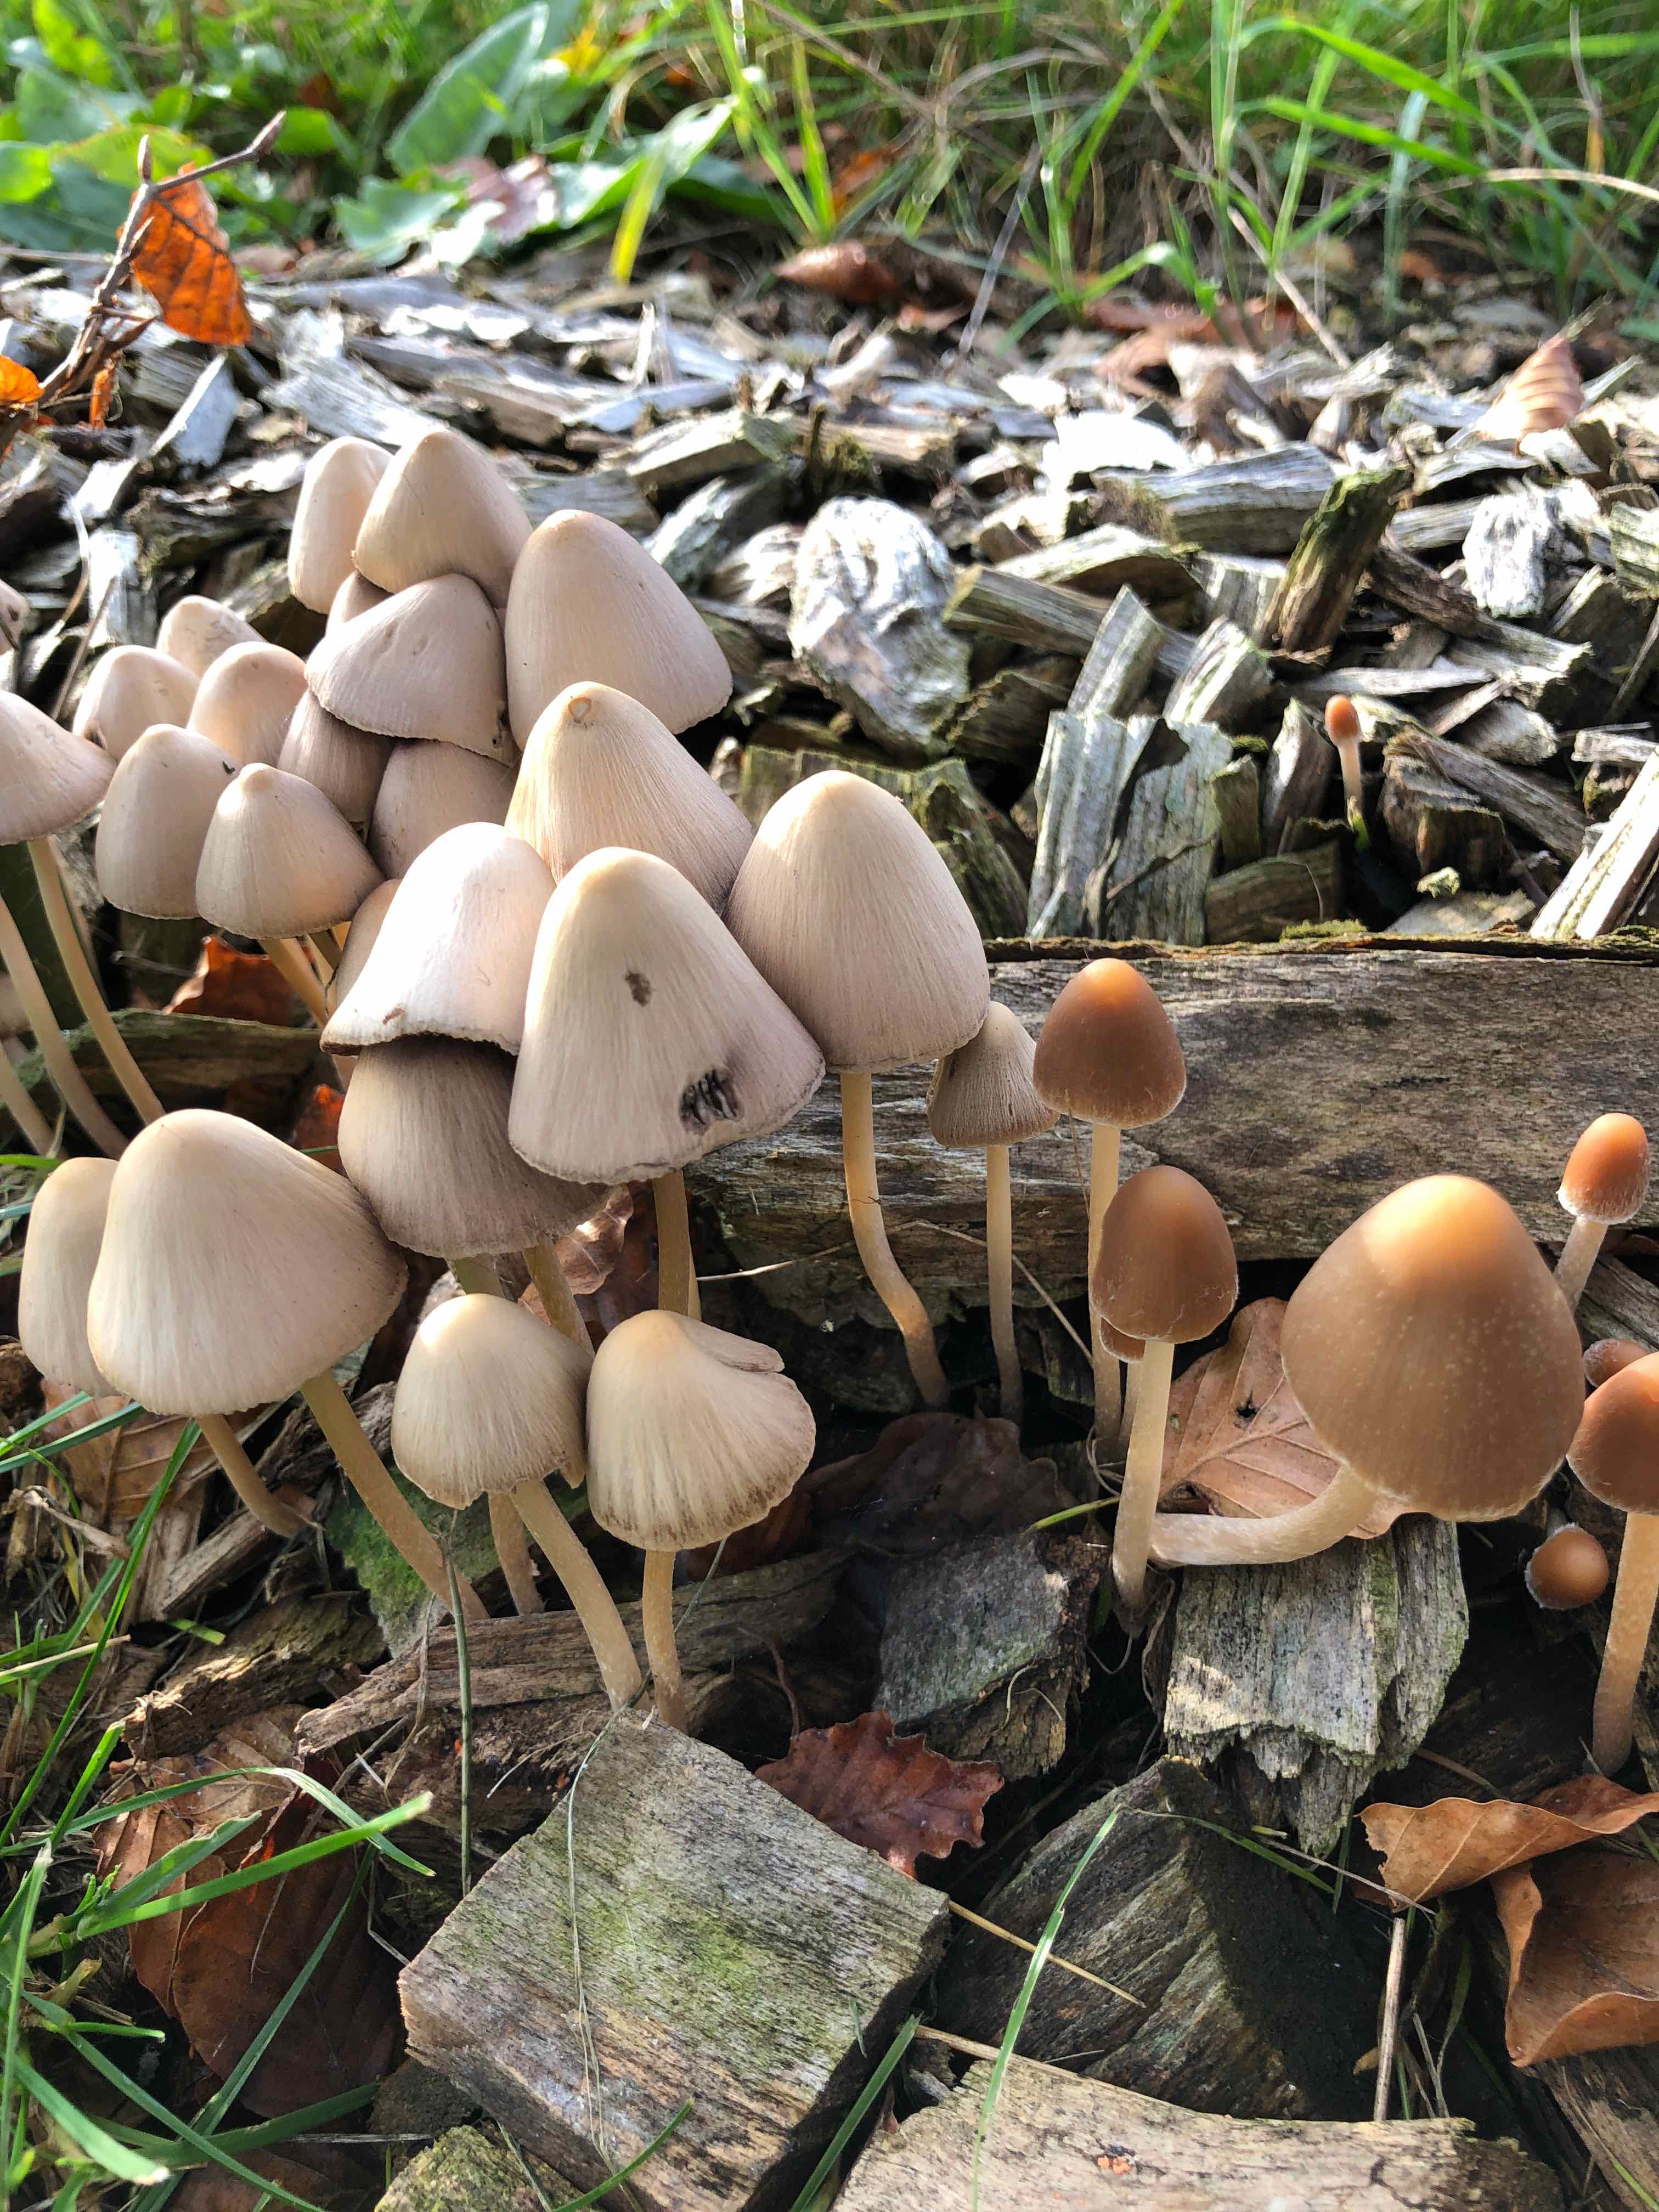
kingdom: Fungi
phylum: Basidiomycota
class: Agaricomycetes
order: Agaricales
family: Psathyrellaceae
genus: Psathyrella
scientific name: Psathyrella
